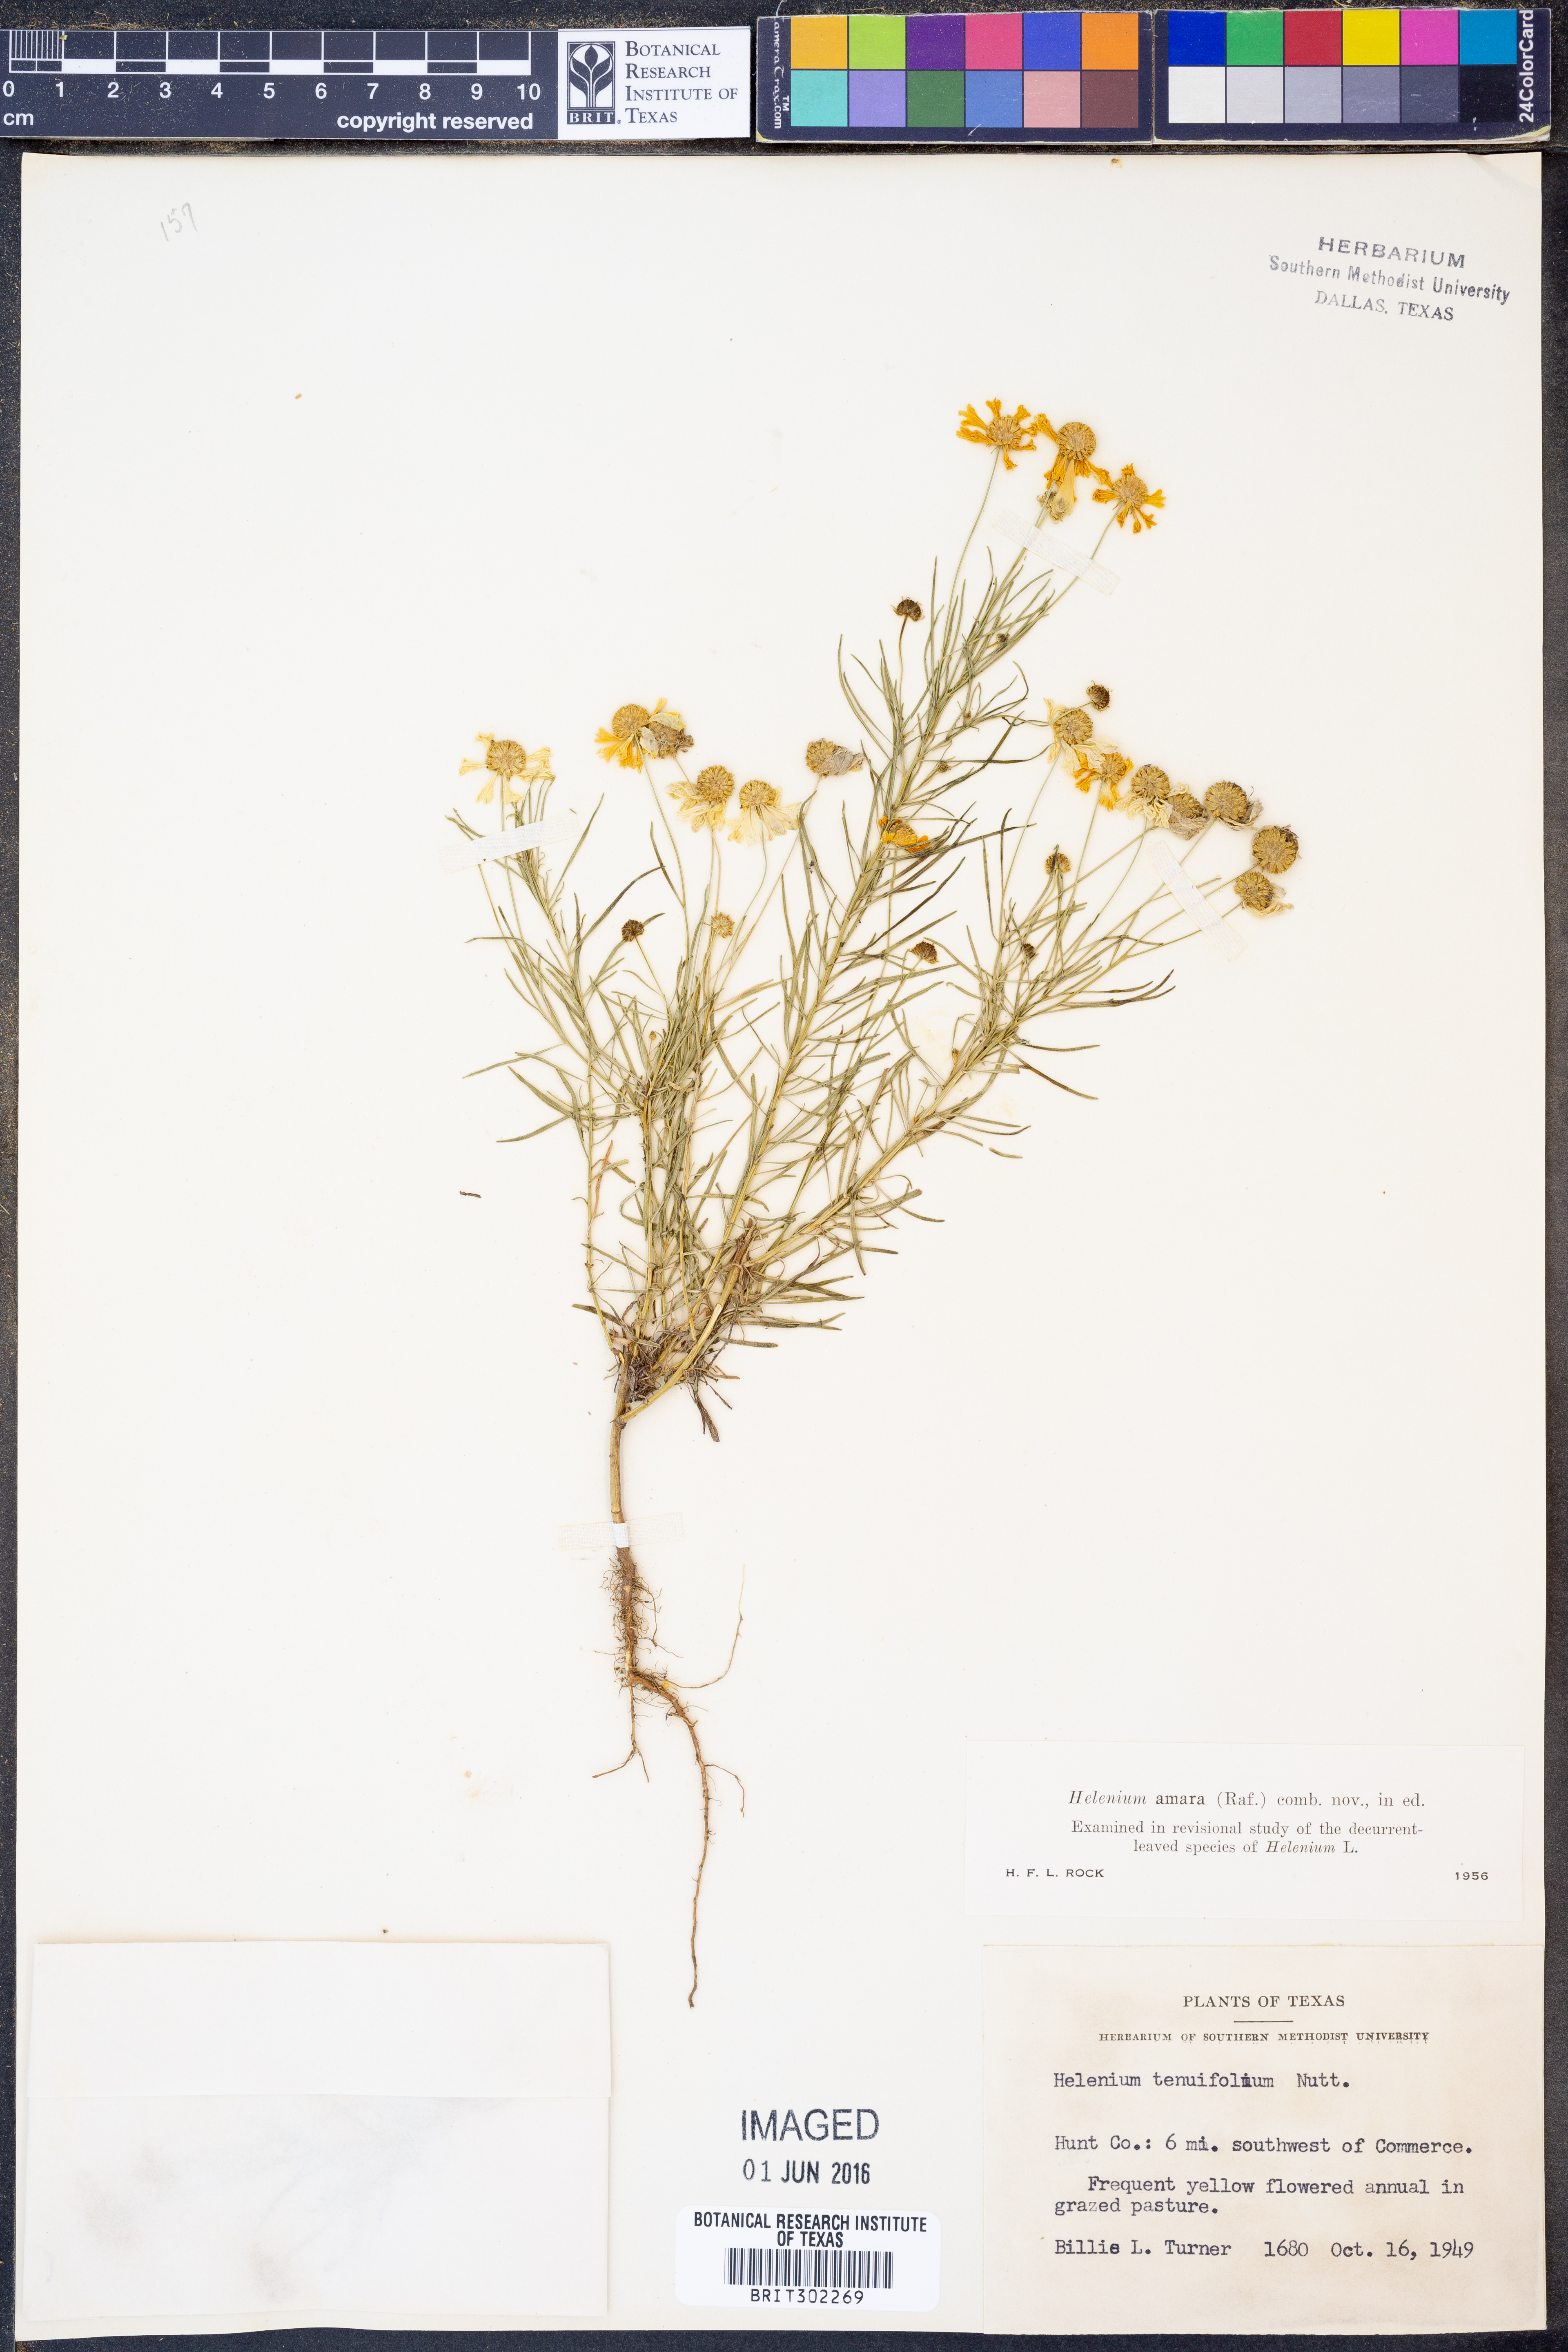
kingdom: Plantae
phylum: Tracheophyta
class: Magnoliopsida
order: Asterales
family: Asteraceae
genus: Helenium
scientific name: Helenium amarum
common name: Bitter sneezeweed
